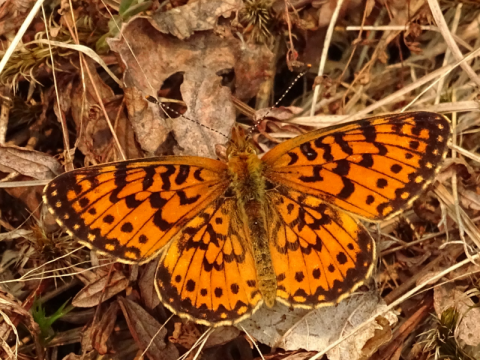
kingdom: Animalia
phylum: Arthropoda
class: Insecta
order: Lepidoptera
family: Nymphalidae
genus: Boloria
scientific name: Boloria selene
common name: Silver-bordered Fritillary
